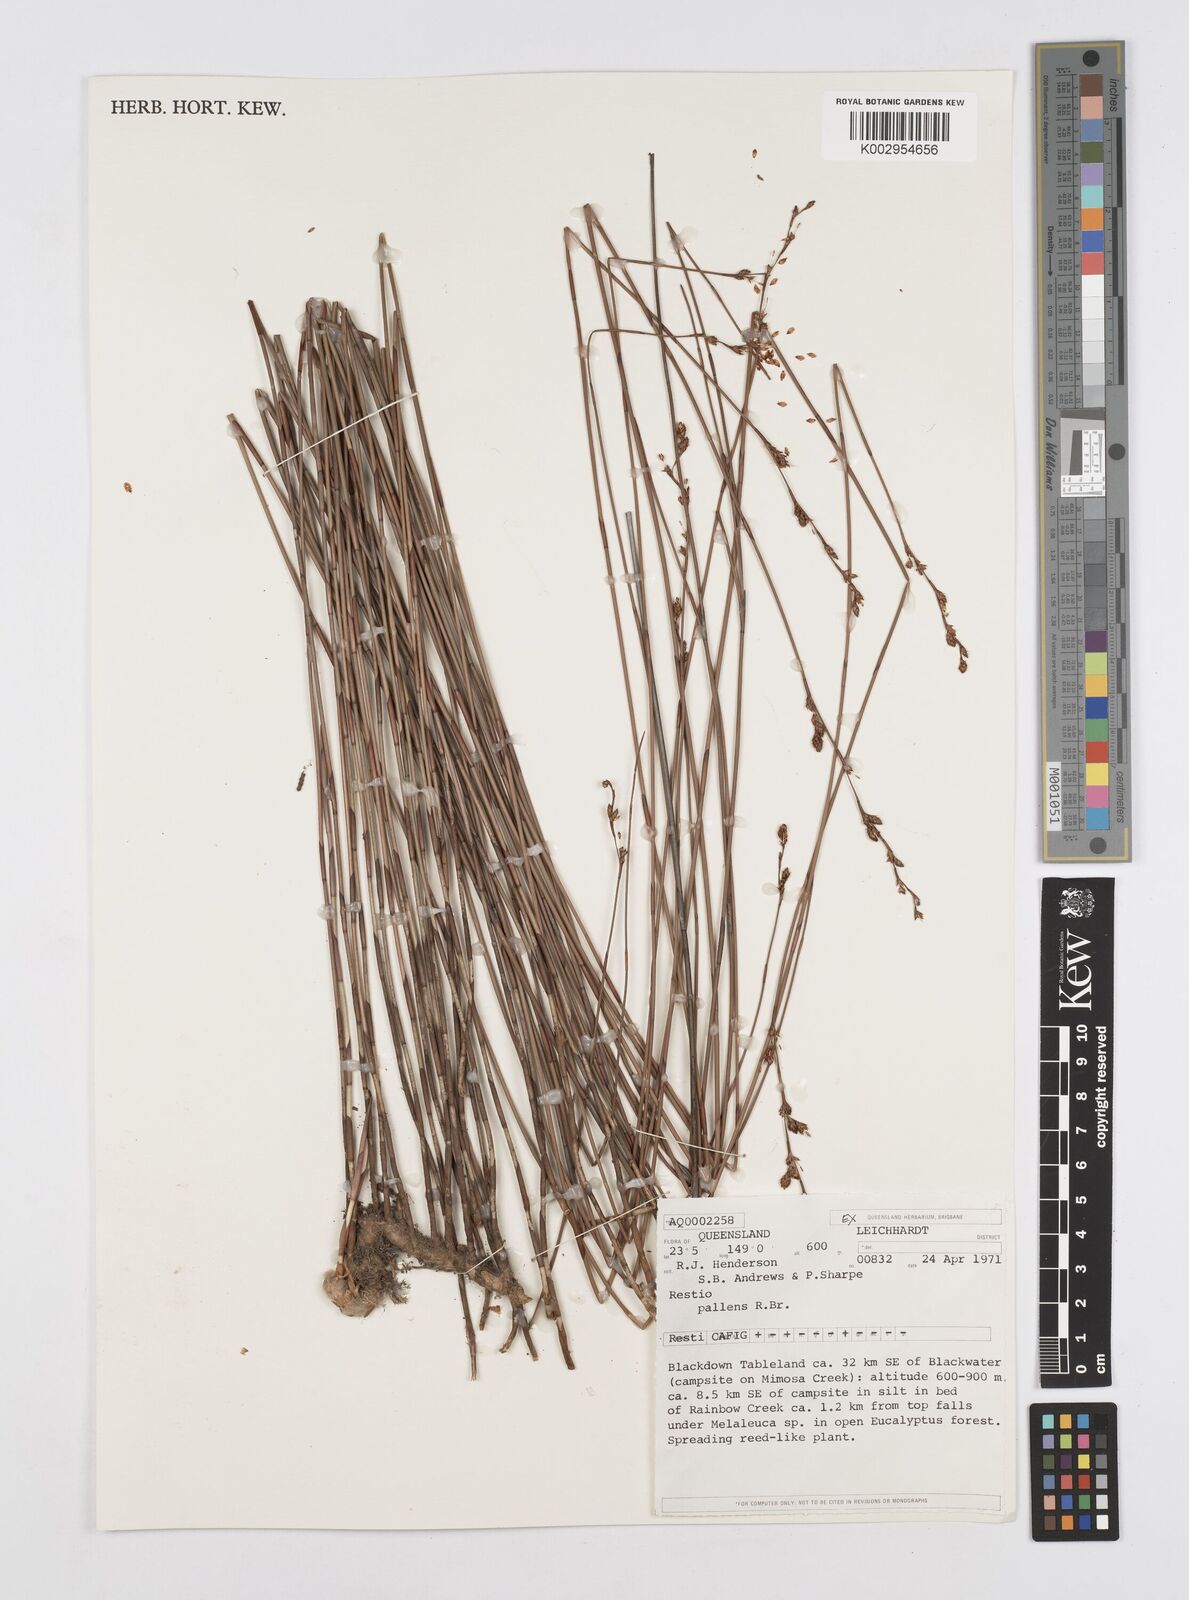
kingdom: Plantae
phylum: Tracheophyta
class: Liliopsida
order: Poales
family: Restionaceae
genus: Baloskion
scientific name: Baloskion pallens
